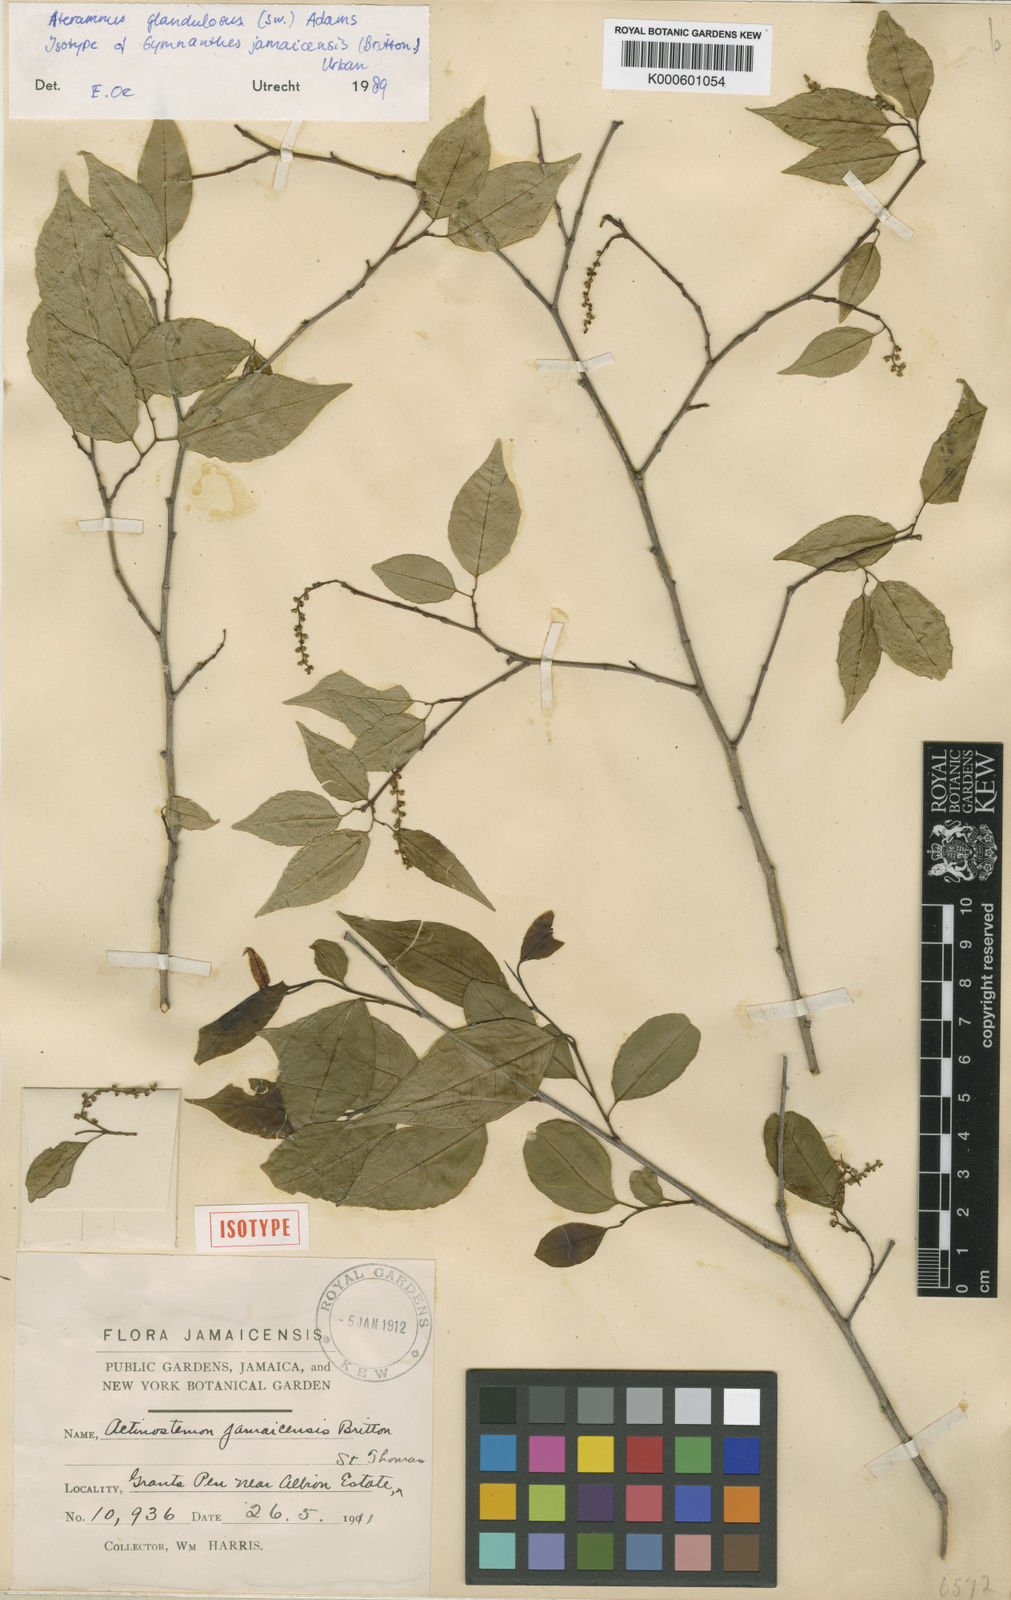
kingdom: Plantae
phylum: Tracheophyta
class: Magnoliopsida
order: Malpighiales
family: Euphorbiaceae
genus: Sebastiania
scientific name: Sebastiania
